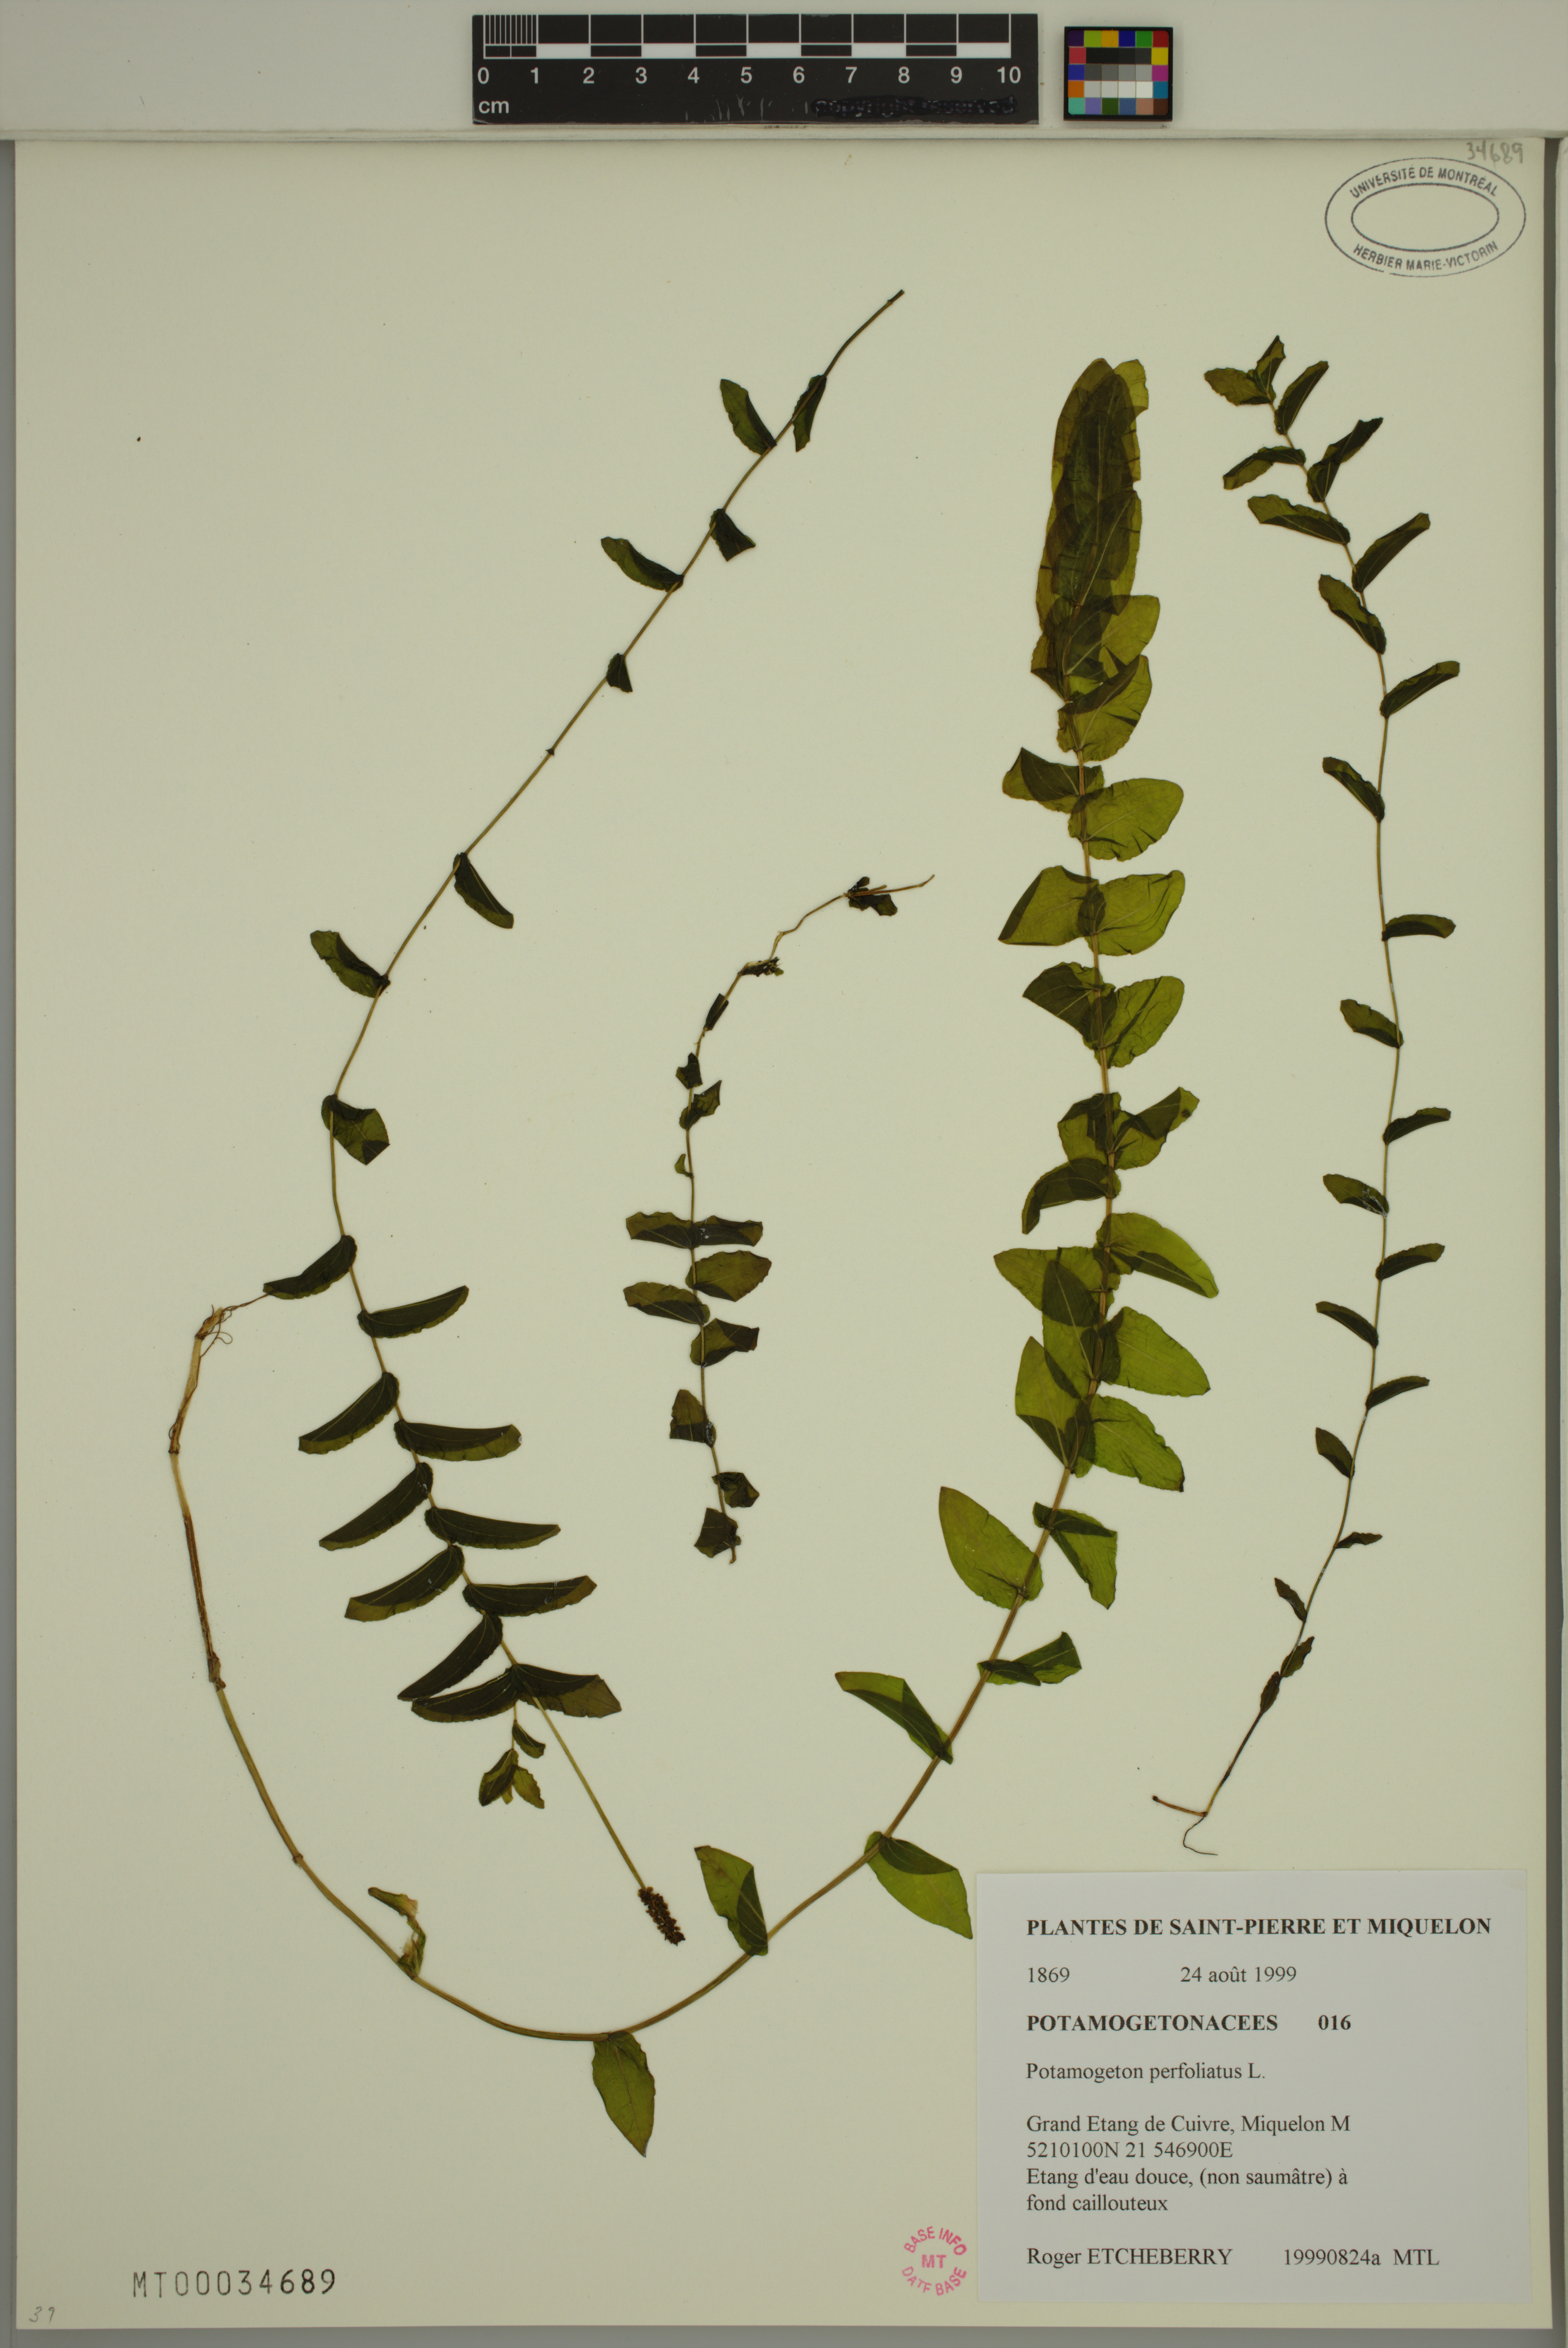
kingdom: Plantae
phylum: Tracheophyta
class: Liliopsida
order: Alismatales
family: Potamogetonaceae
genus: Potamogeton
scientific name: Potamogeton perfoliatus
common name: Perfoliate pondweed
